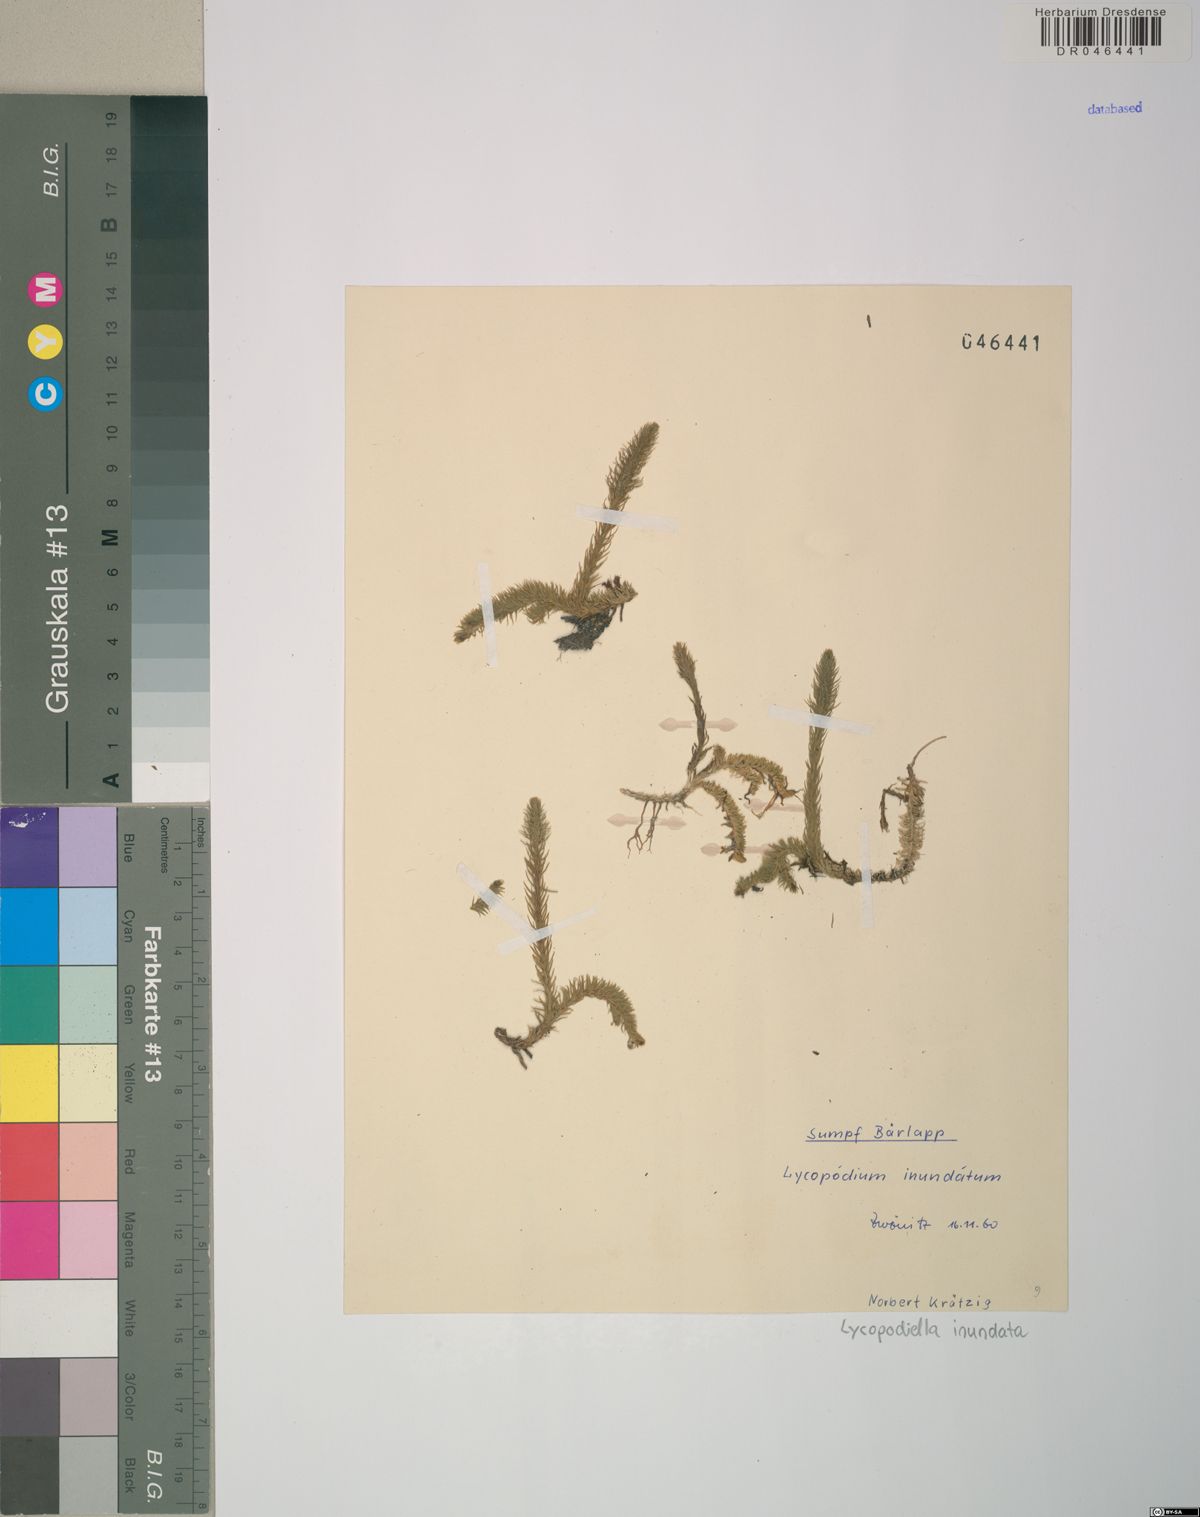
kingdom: Plantae
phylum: Tracheophyta
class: Lycopodiopsida
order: Lycopodiales
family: Lycopodiaceae
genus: Lycopodiella
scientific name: Lycopodiella inundata
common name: Marsh clubmoss
